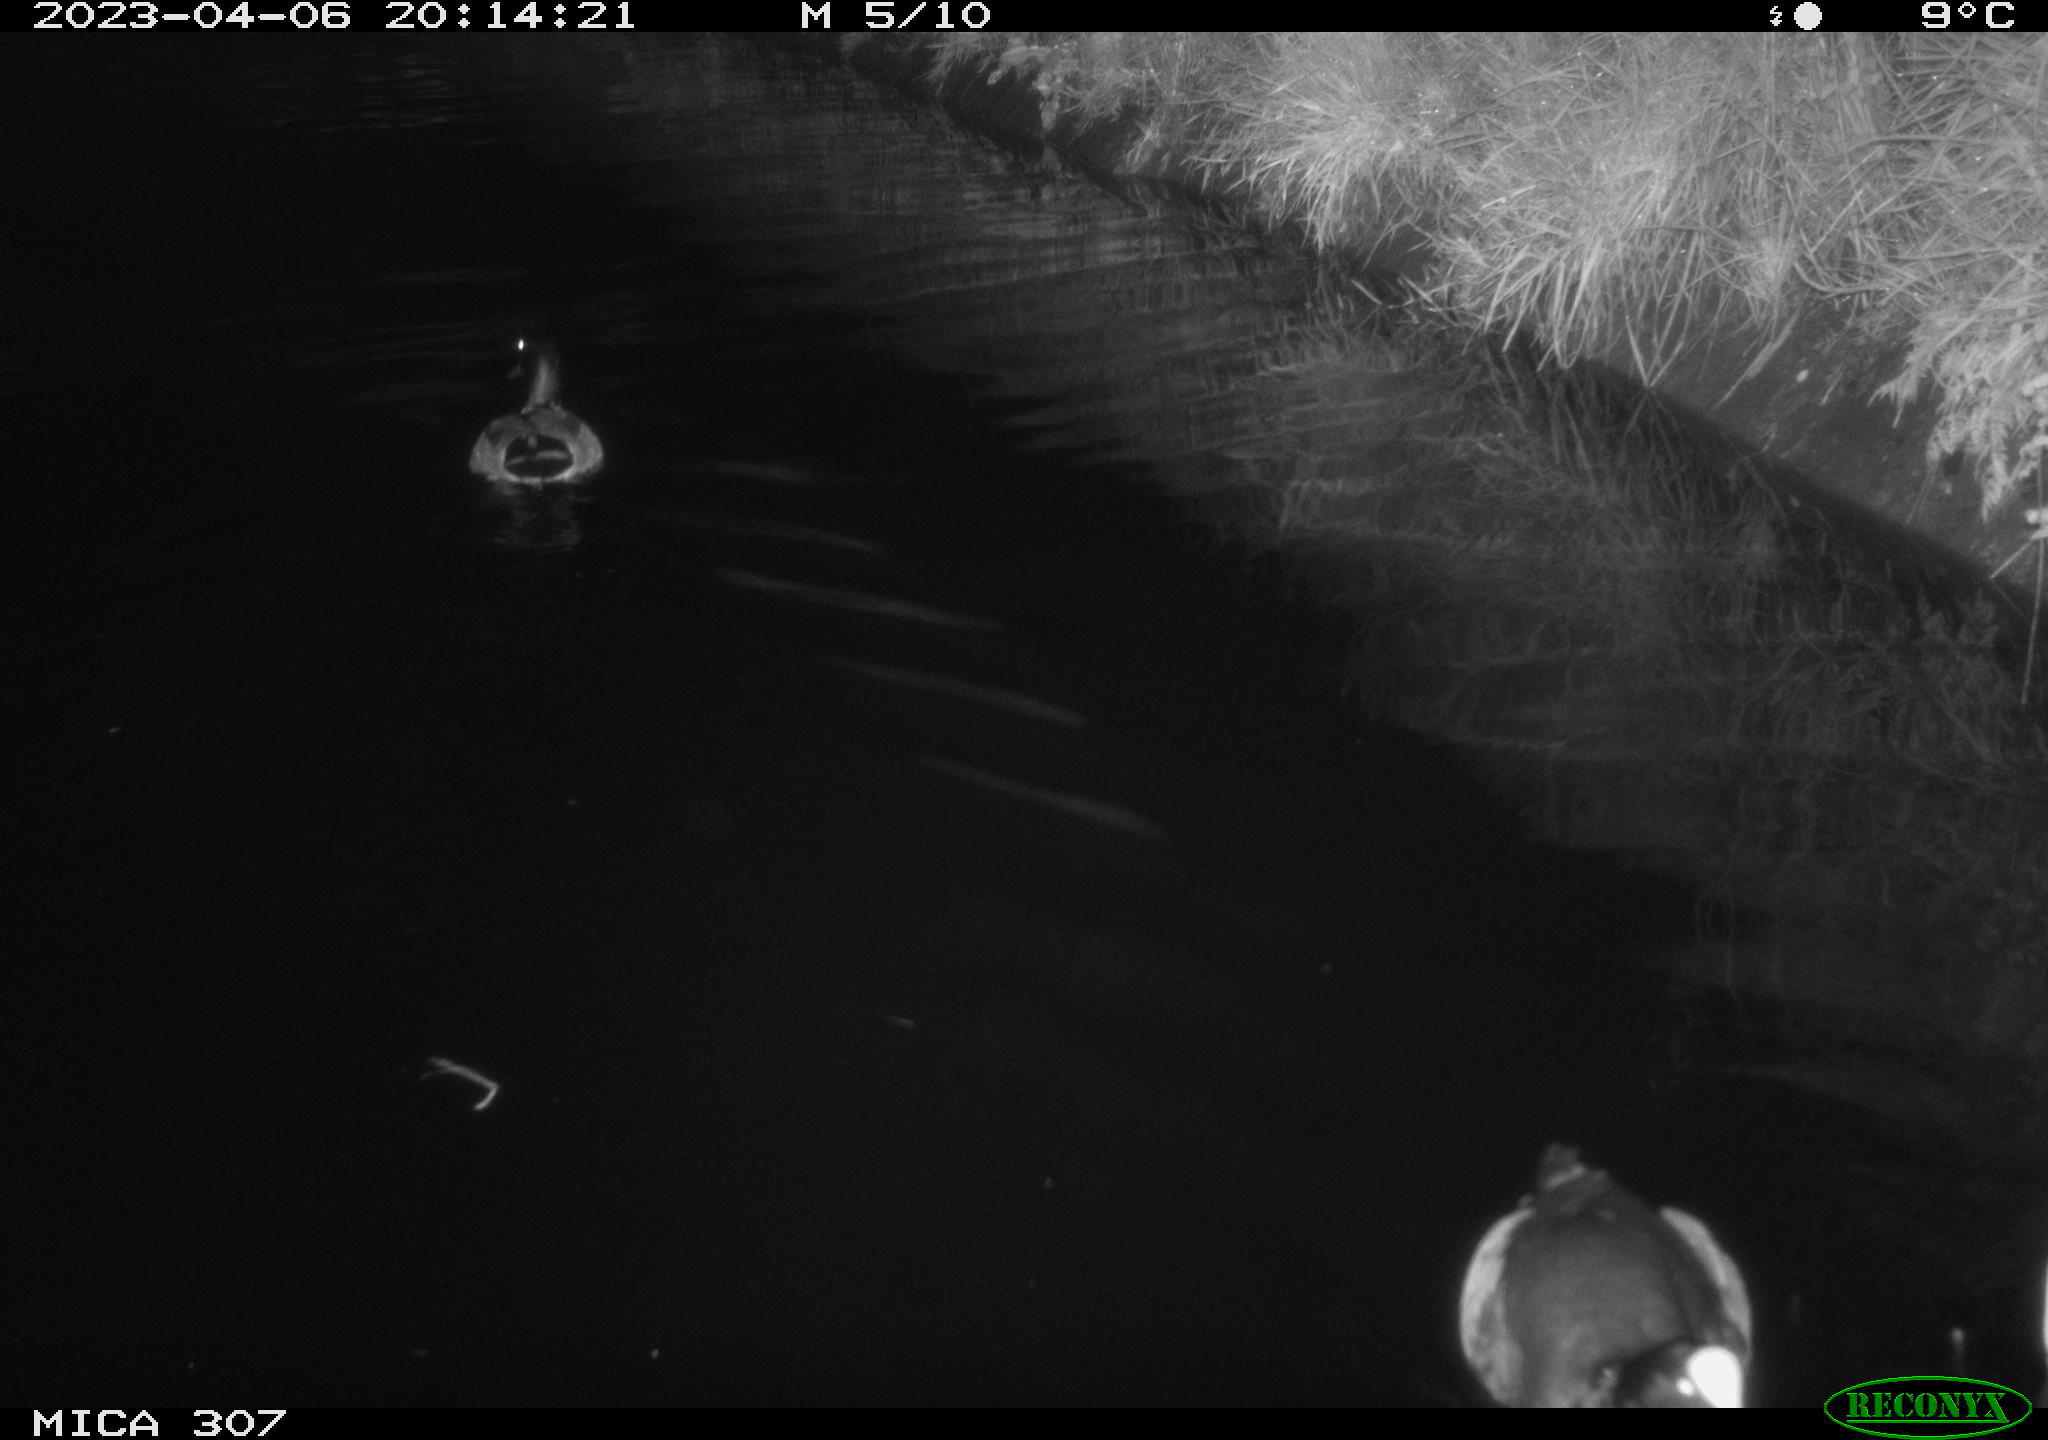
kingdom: Animalia
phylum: Chordata
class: Aves
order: Gruiformes
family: Rallidae
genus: Gallinula
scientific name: Gallinula chloropus
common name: Common moorhen
